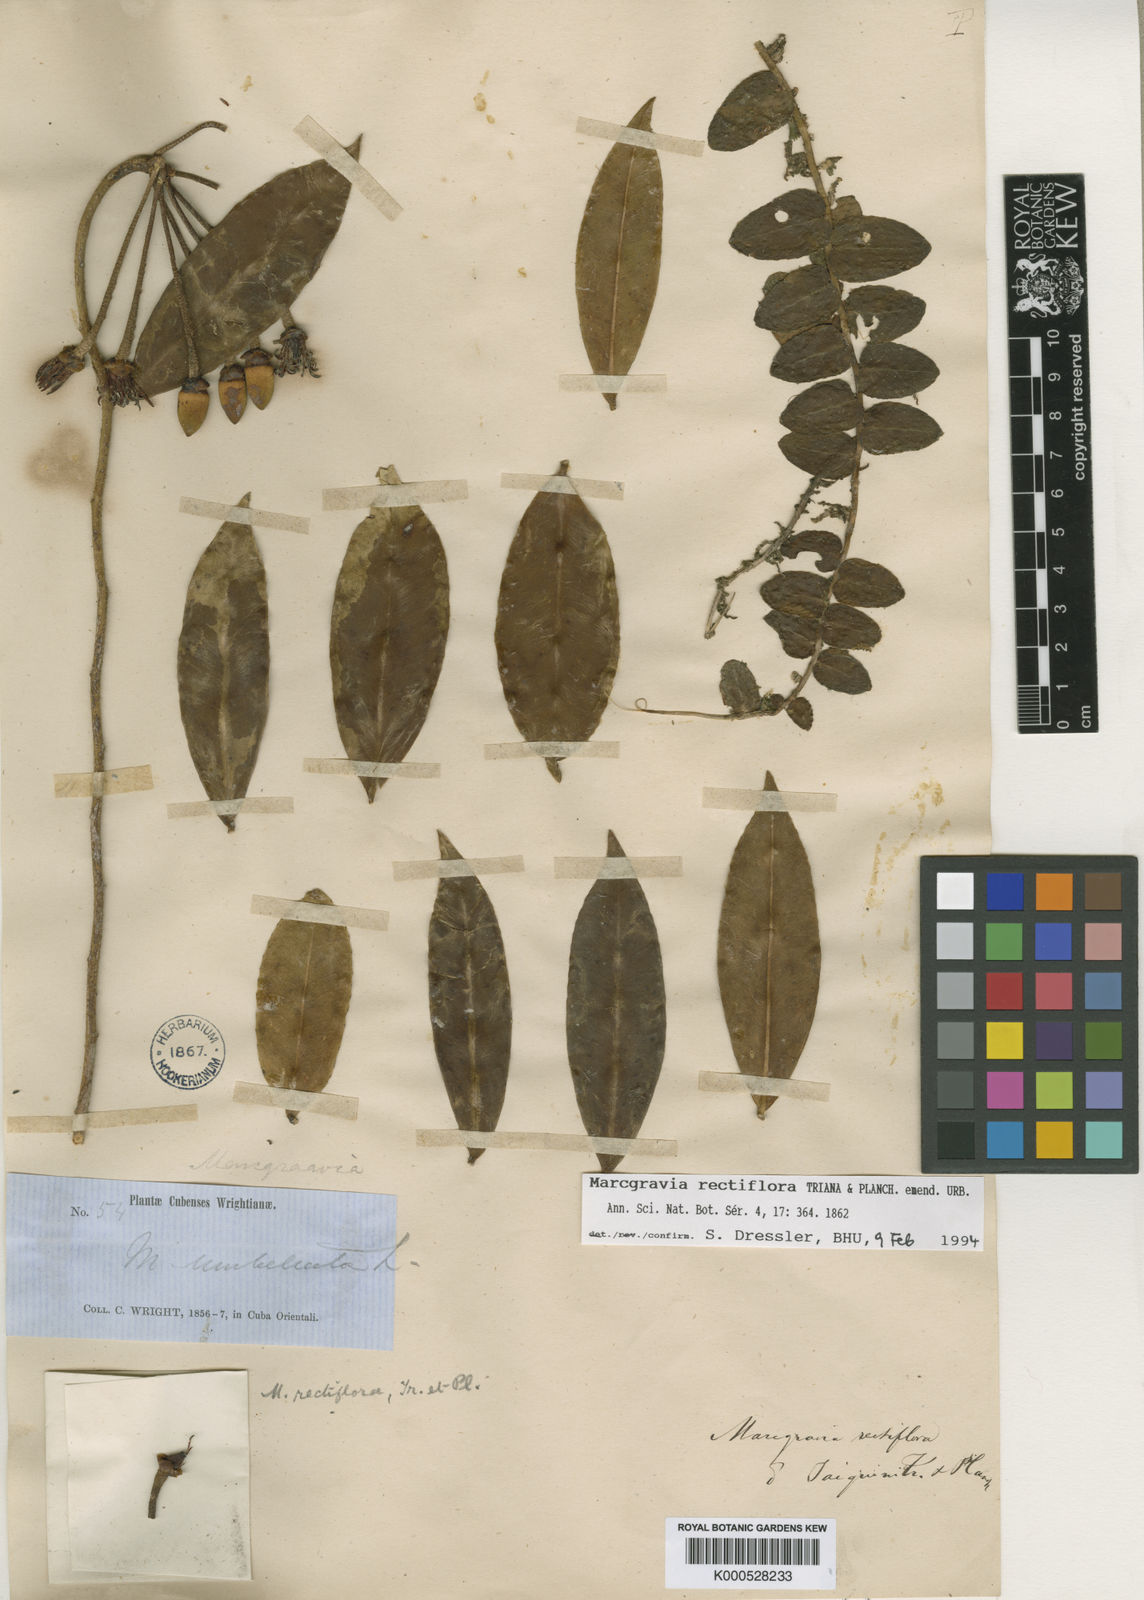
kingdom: Plantae
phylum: Tracheophyta
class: Magnoliopsida
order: Ericales
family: Marcgraviaceae
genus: Marcgravia
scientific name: Marcgravia rectiflora
